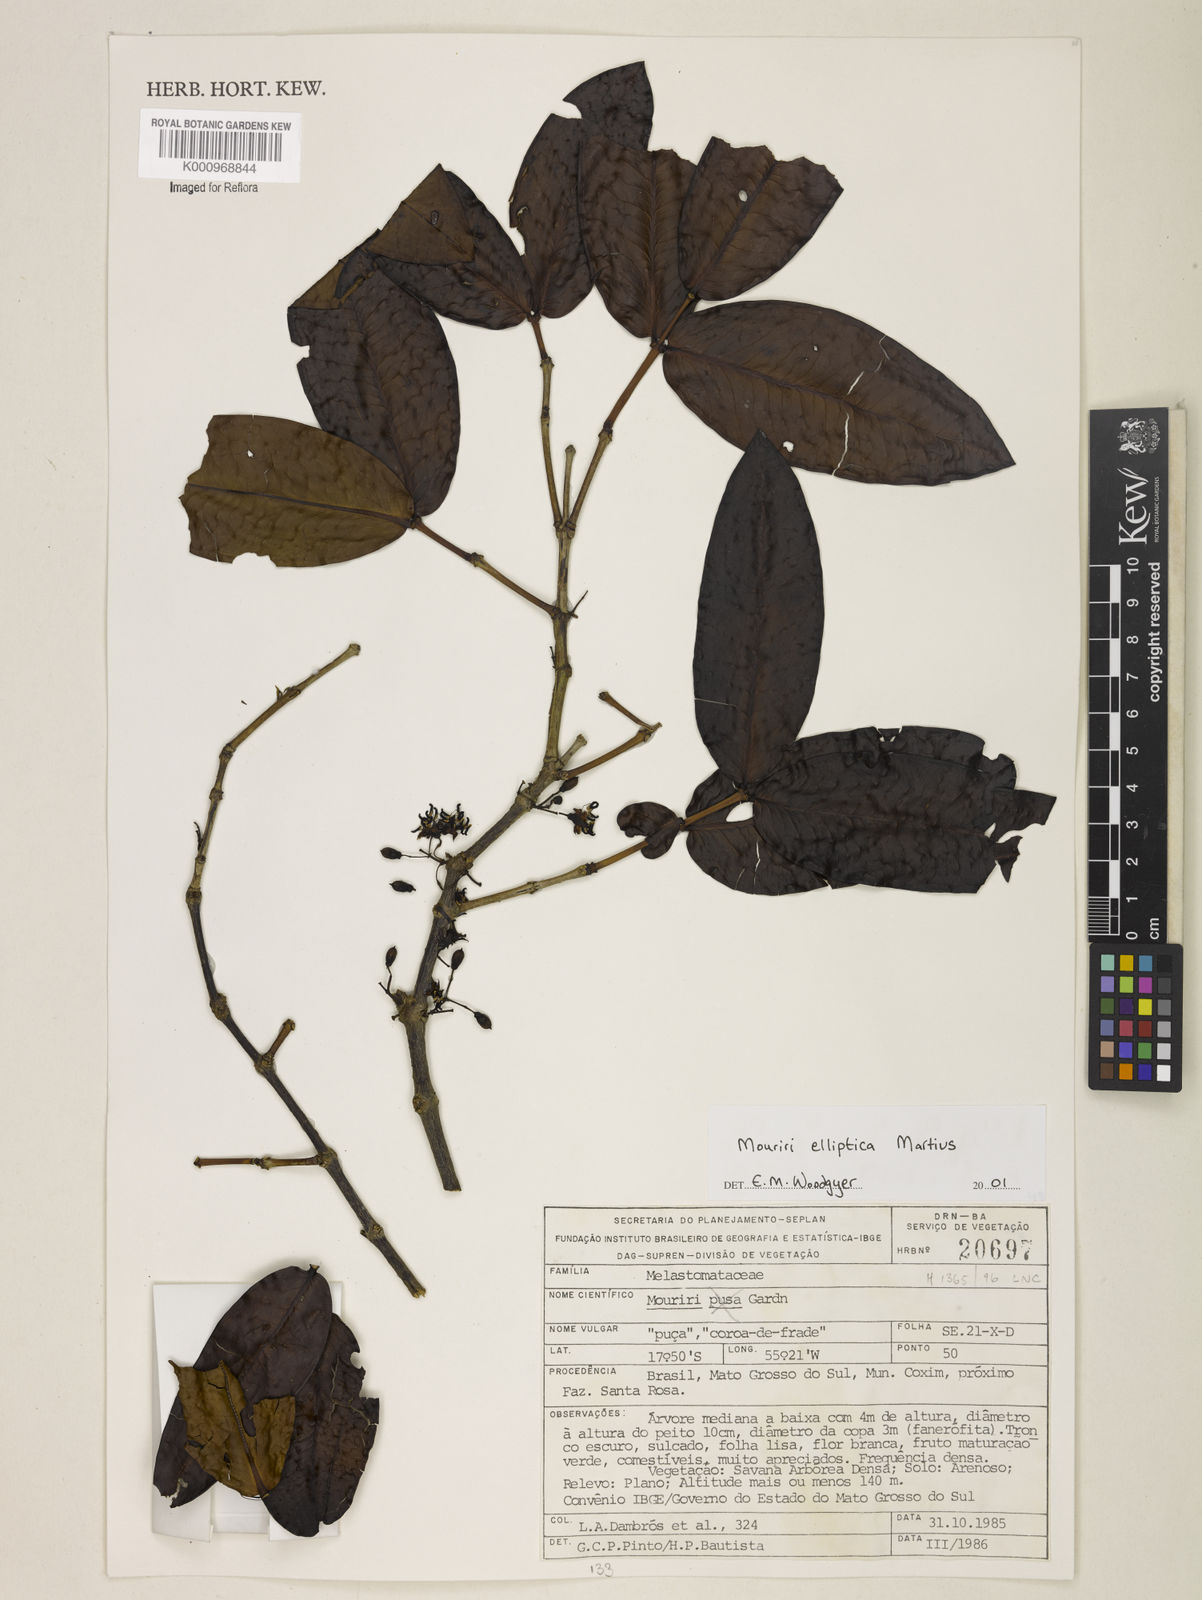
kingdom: Plantae
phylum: Tracheophyta
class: Magnoliopsida
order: Myrtales
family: Melastomataceae
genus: Mouriri
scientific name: Mouriri elliptica
